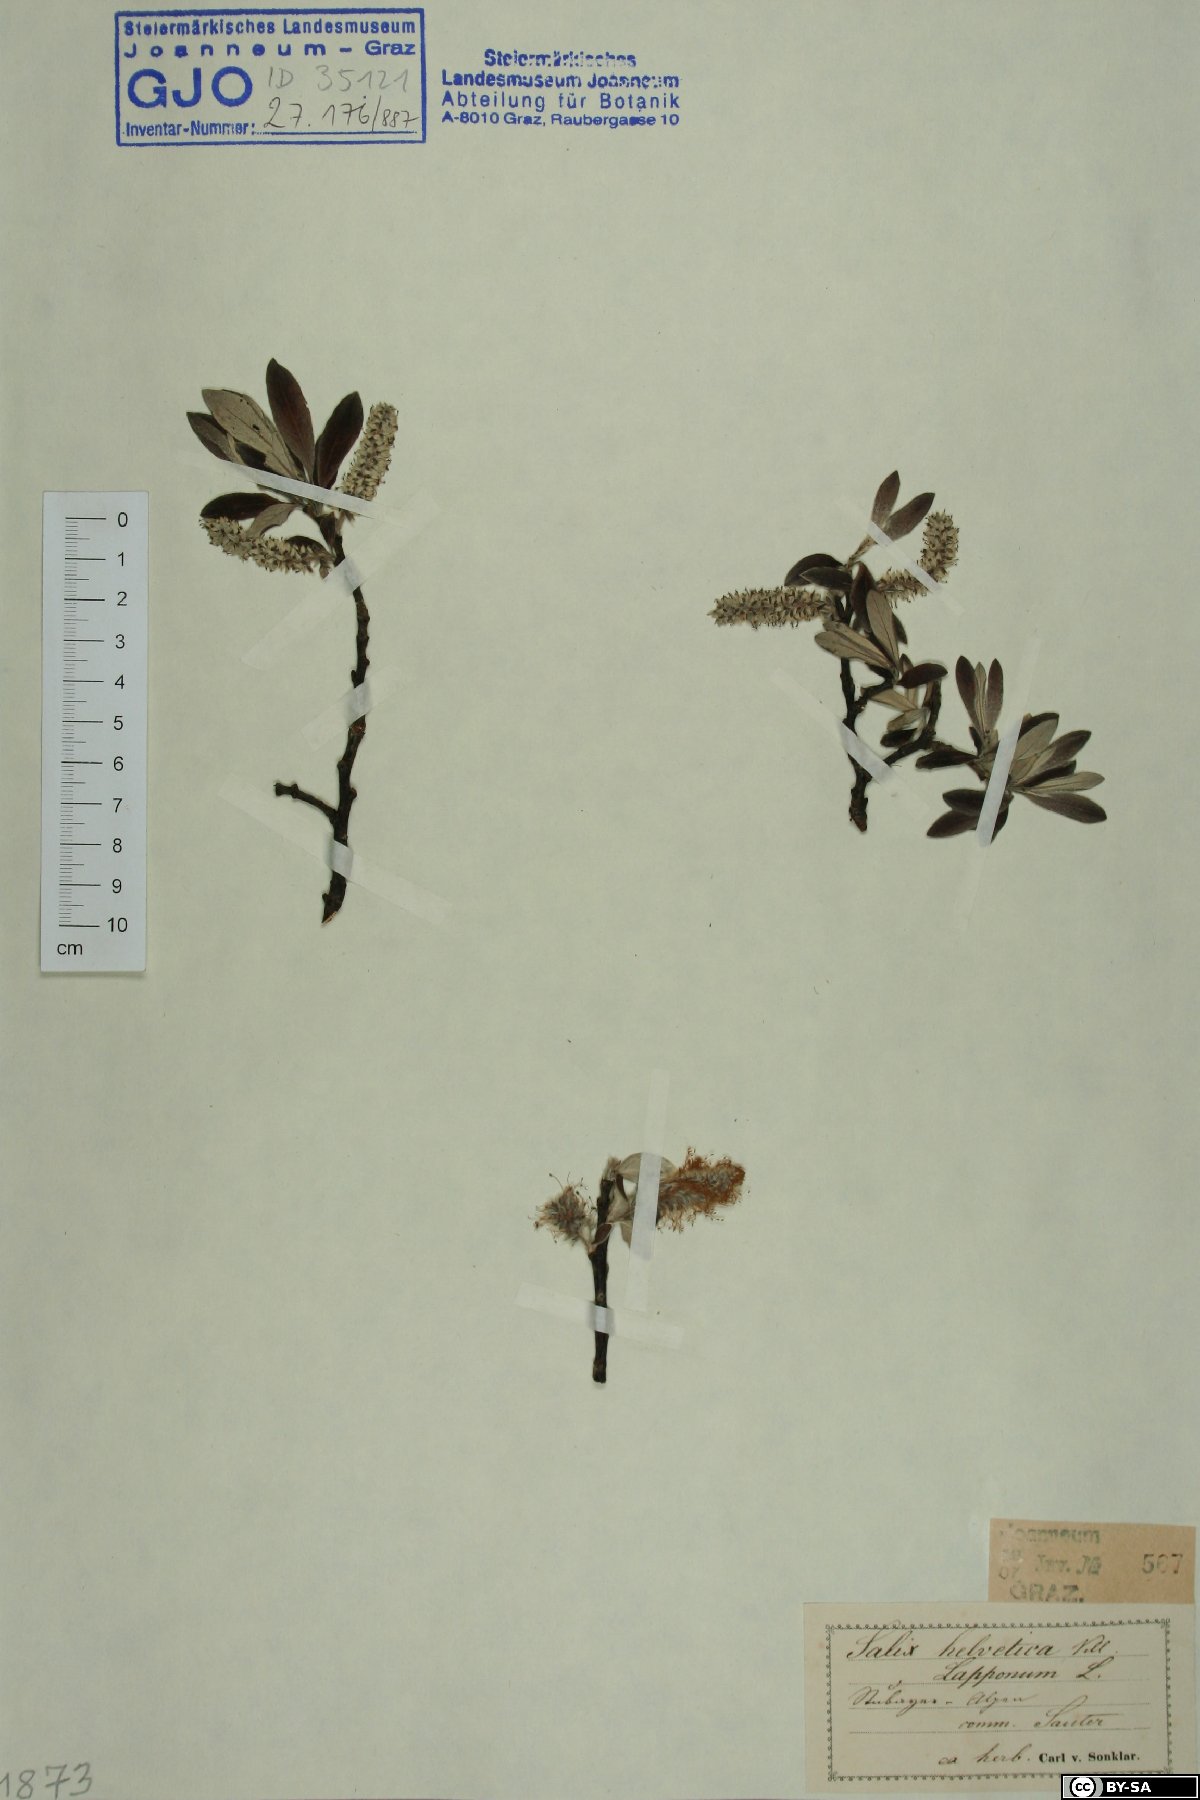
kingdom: Plantae
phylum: Tracheophyta
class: Magnoliopsida
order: Malpighiales
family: Salicaceae
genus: Salix
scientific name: Salix helvetica
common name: Swiss willow
